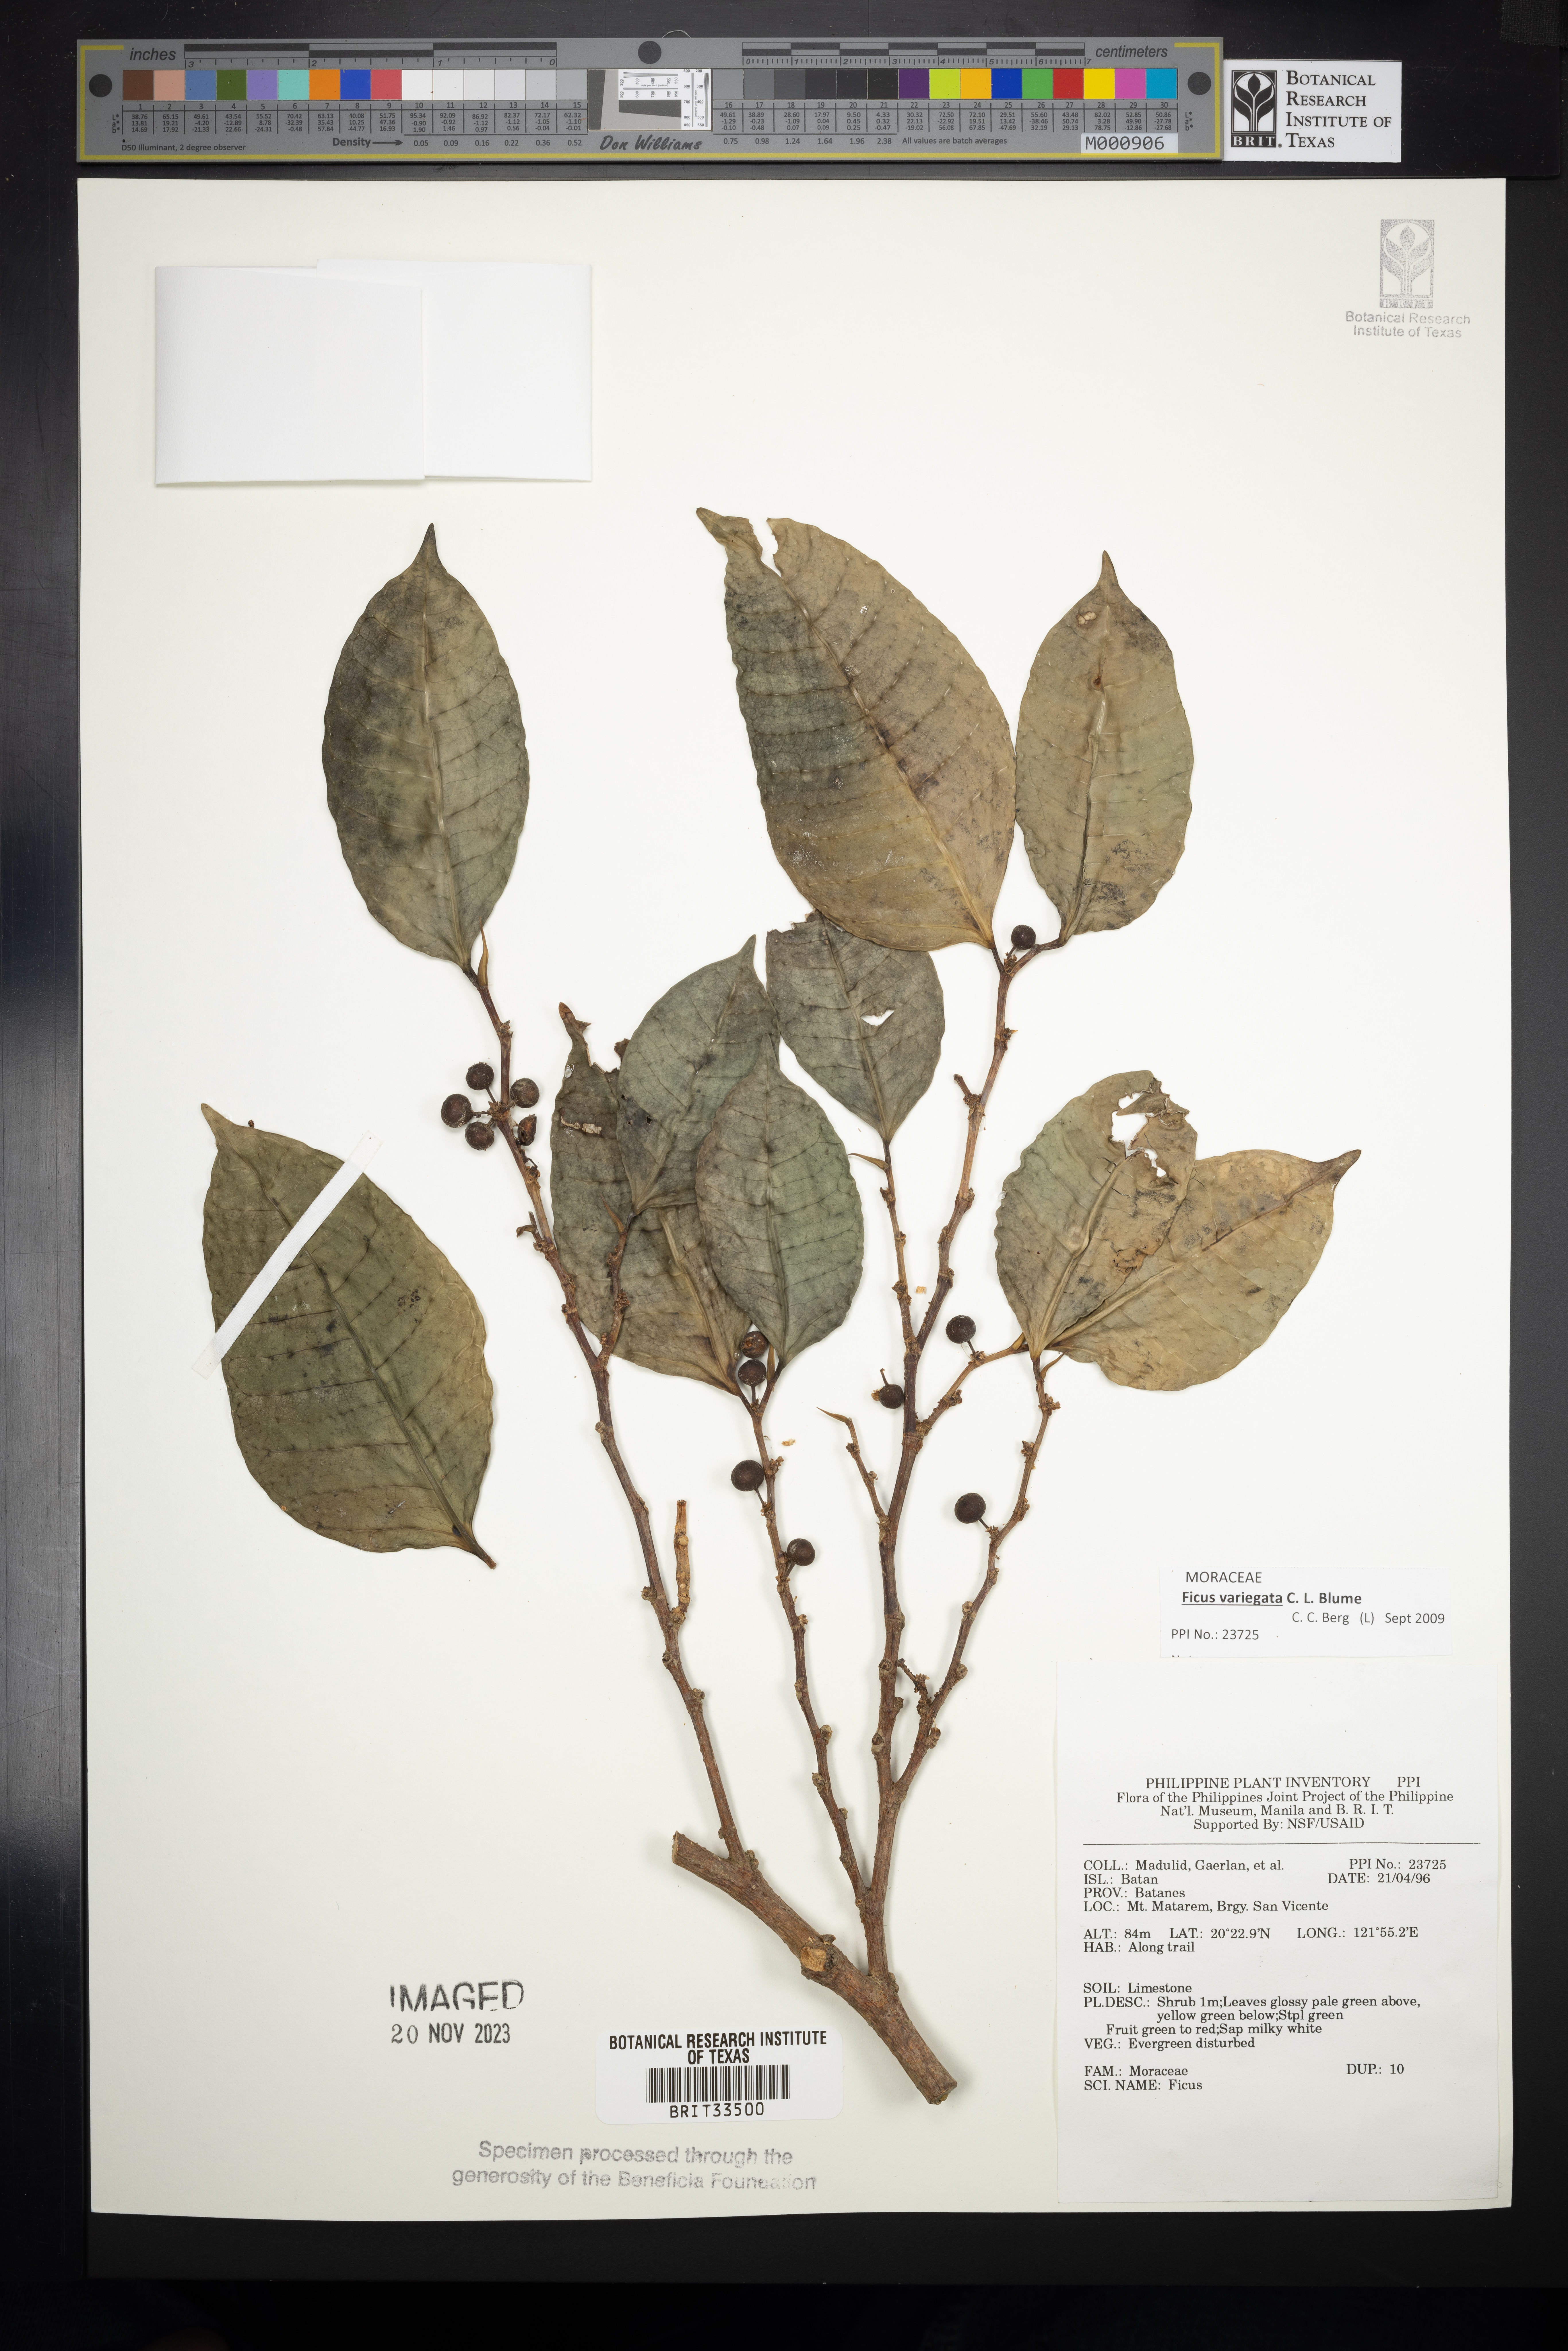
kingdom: Plantae
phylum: Tracheophyta
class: Magnoliopsida
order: Rosales
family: Moraceae
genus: Ficus
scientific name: Ficus
